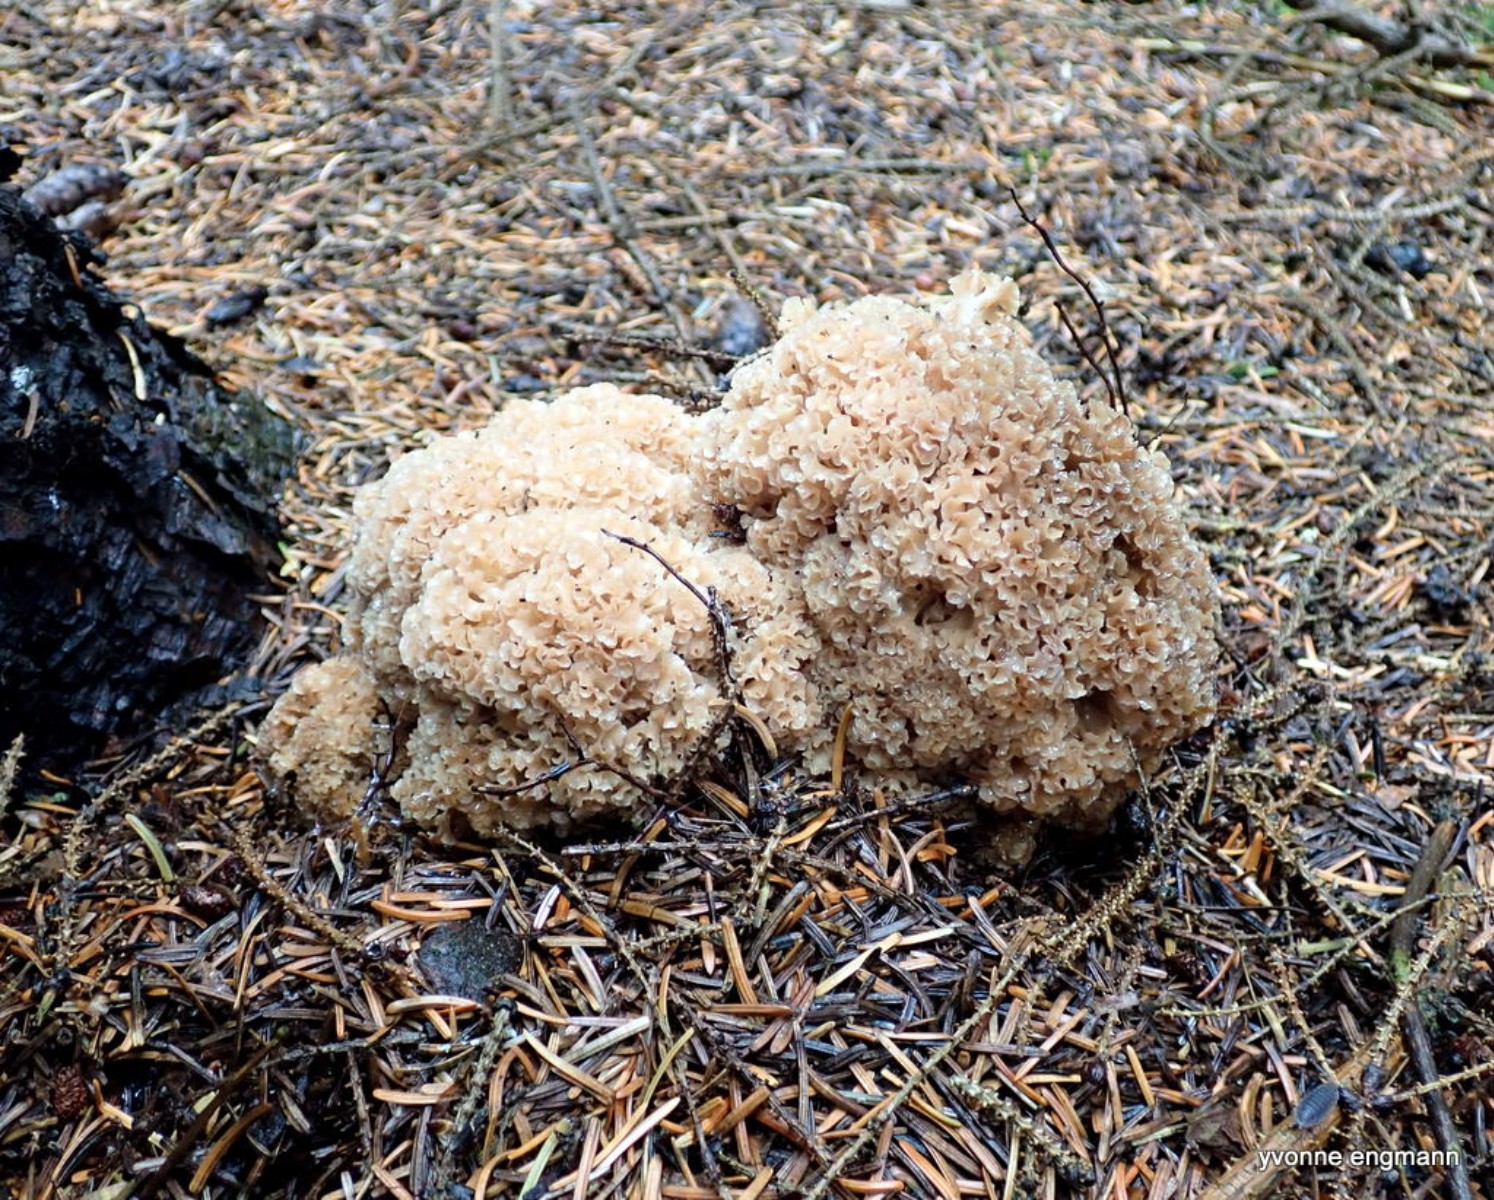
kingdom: Fungi
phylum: Basidiomycota
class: Agaricomycetes
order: Polyporales
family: Sparassidaceae
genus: Sparassis
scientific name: Sparassis crispa
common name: kruset blomkålssvamp
